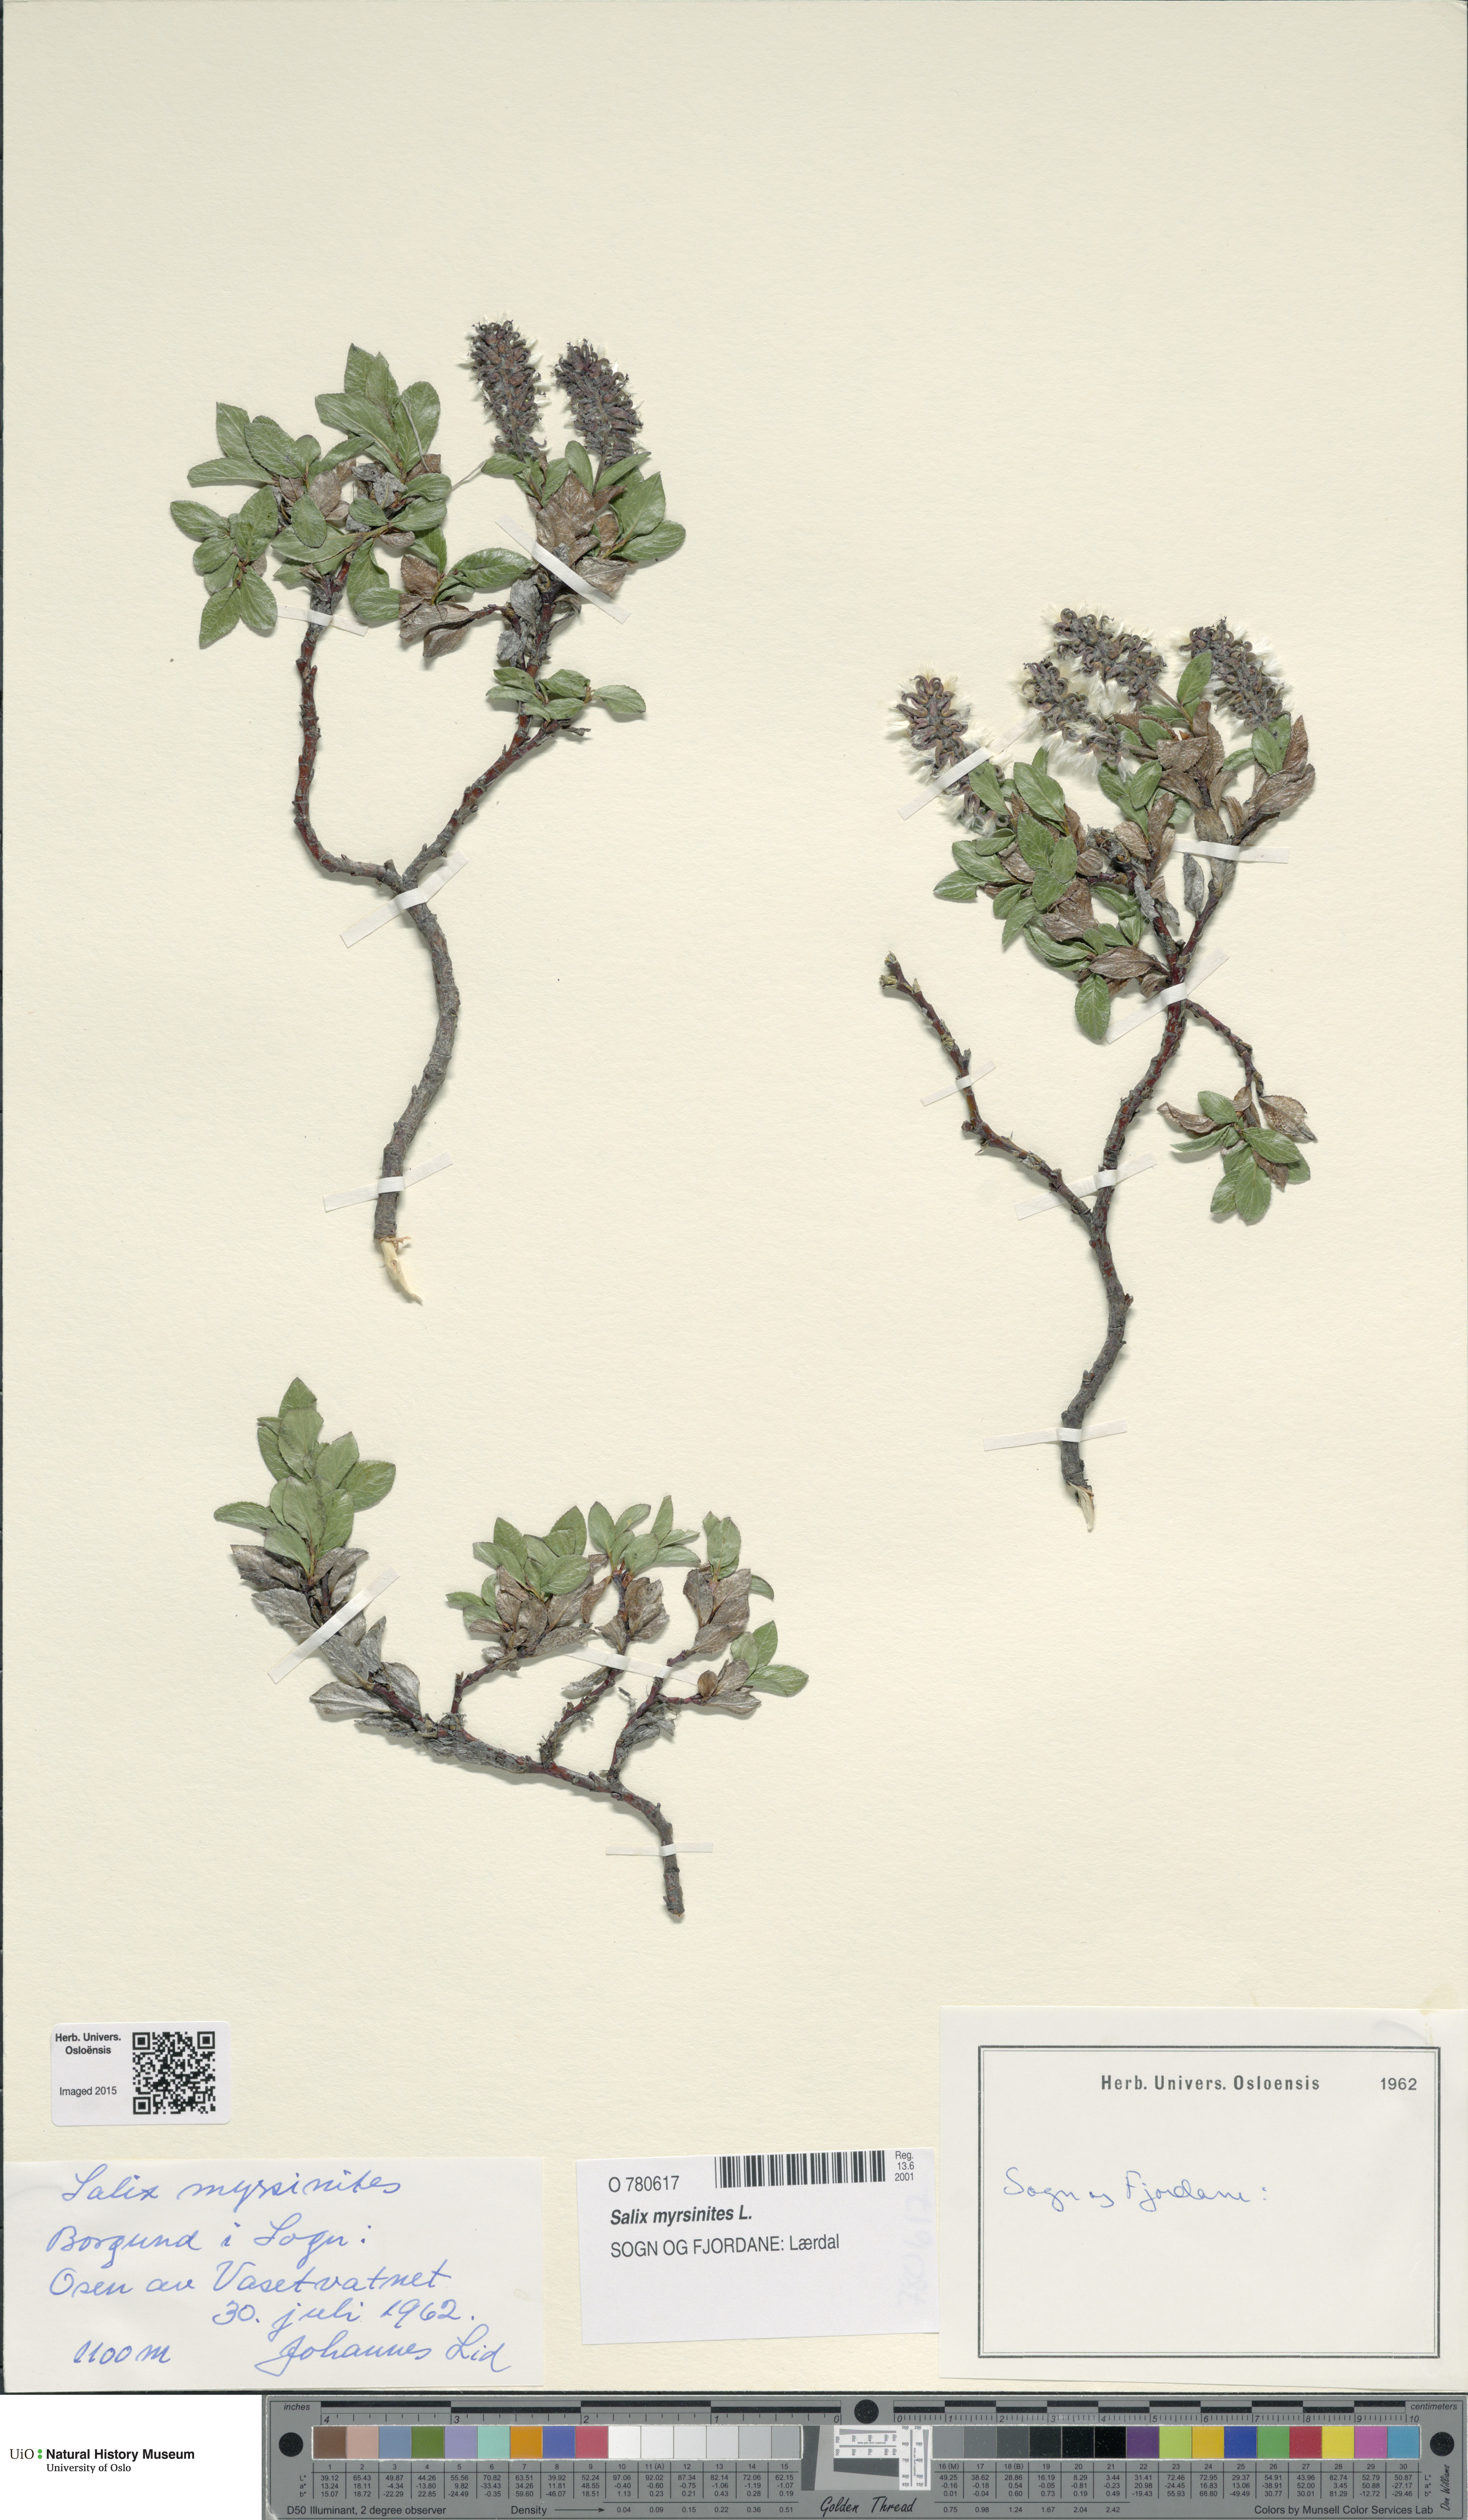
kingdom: Plantae
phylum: Tracheophyta
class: Magnoliopsida
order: Malpighiales
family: Salicaceae
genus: Salix
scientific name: Salix myrsinites
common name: Myrtle willow
